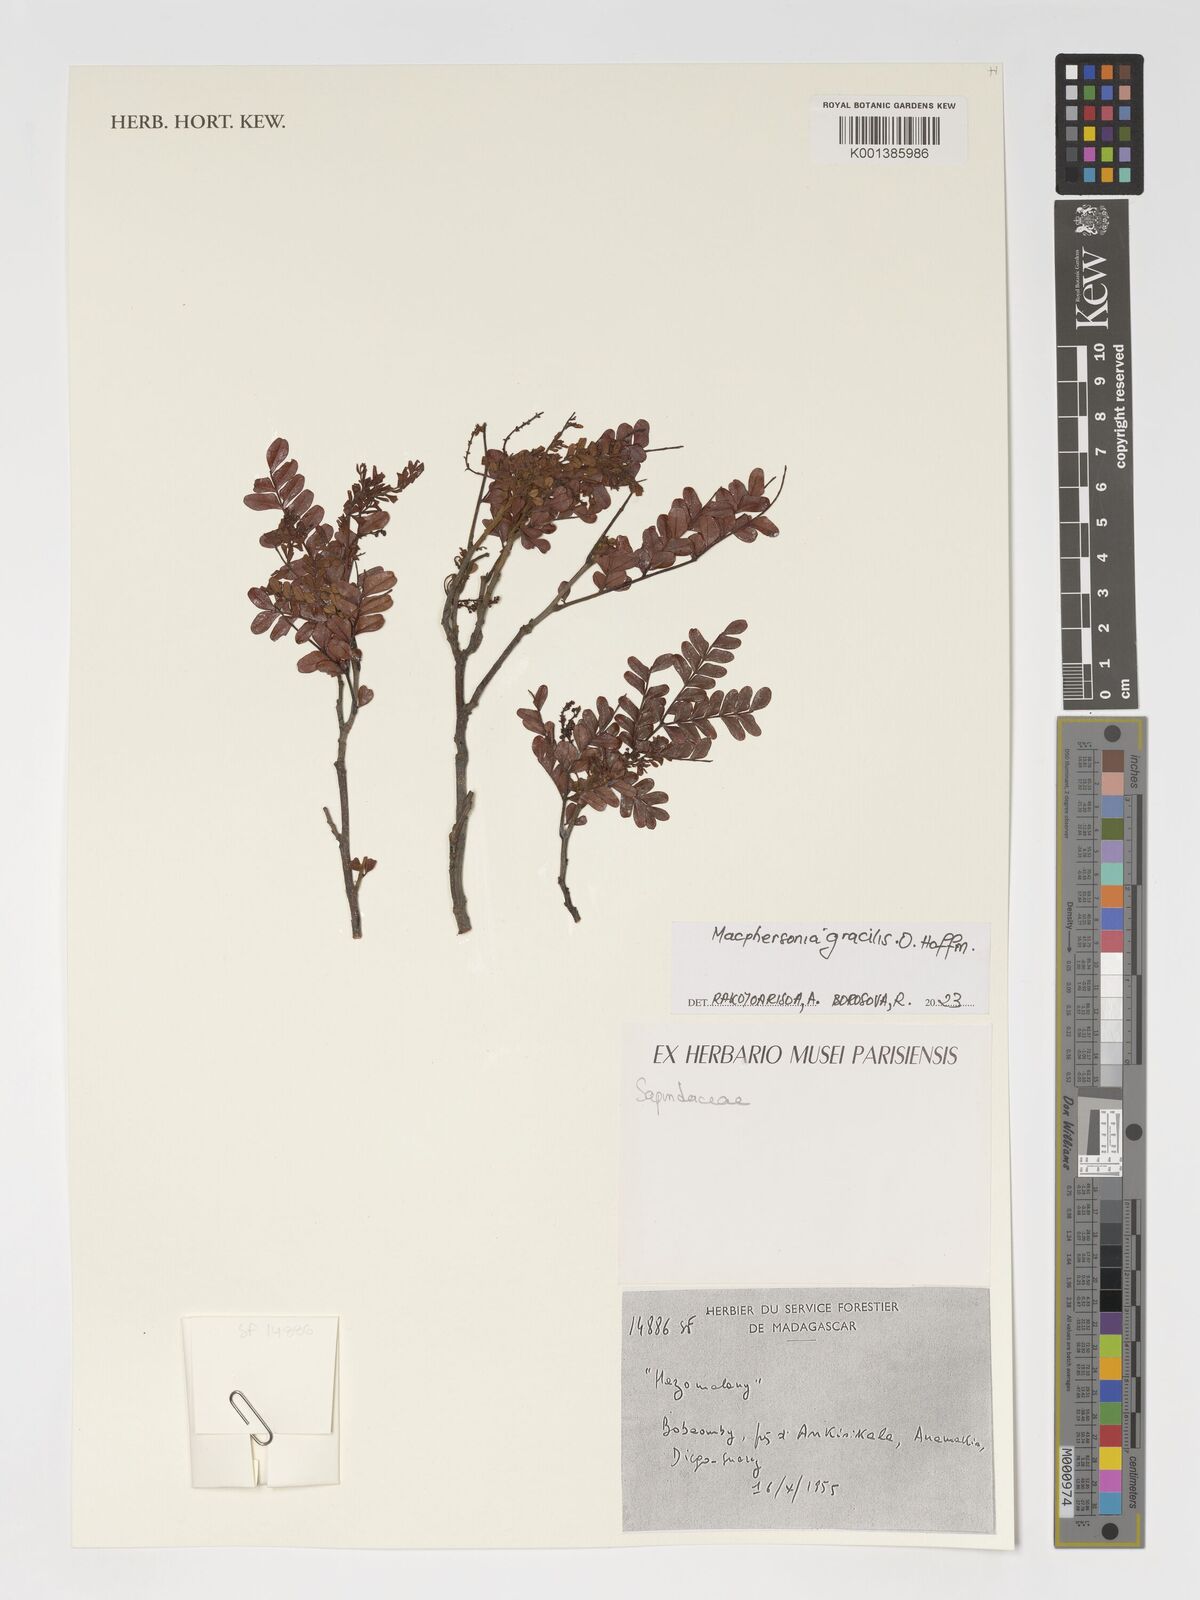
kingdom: Plantae
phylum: Tracheophyta
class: Magnoliopsida
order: Sapindales
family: Sapindaceae
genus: Macphersonia
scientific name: Macphersonia gracilis
